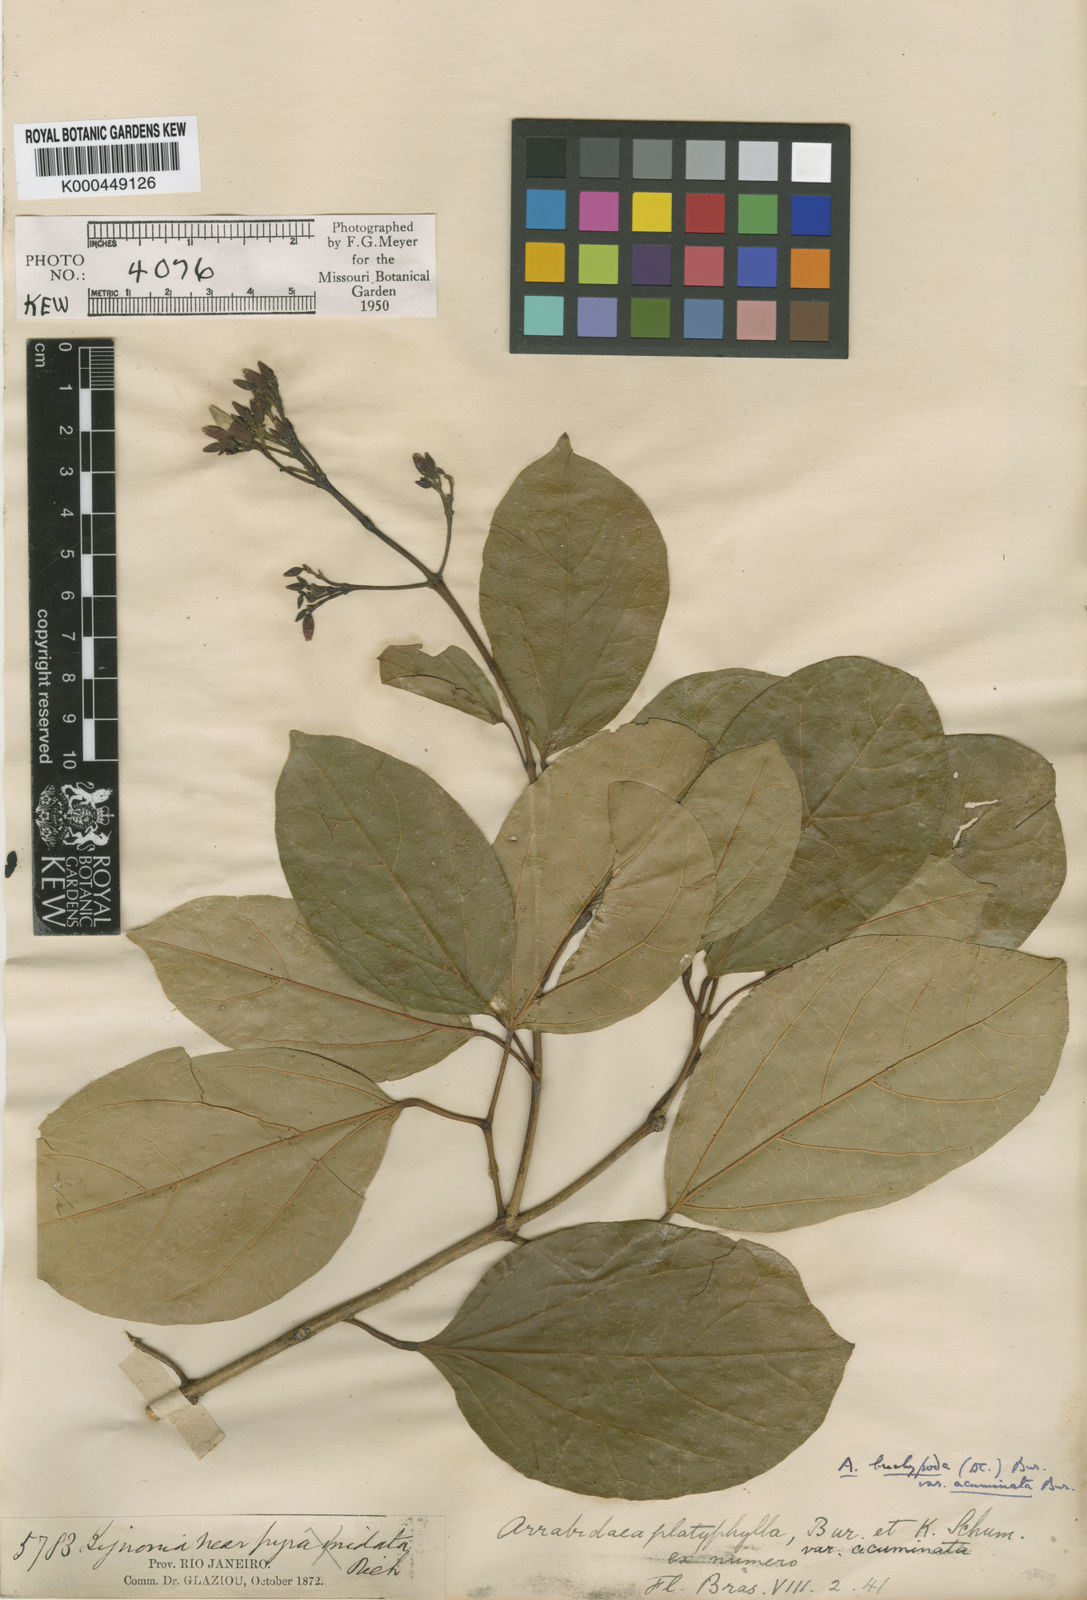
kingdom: Plantae
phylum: Tracheophyta
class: Magnoliopsida
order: Lamiales
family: Bignoniaceae
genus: Fridericia
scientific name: Fridericia platyphylla
